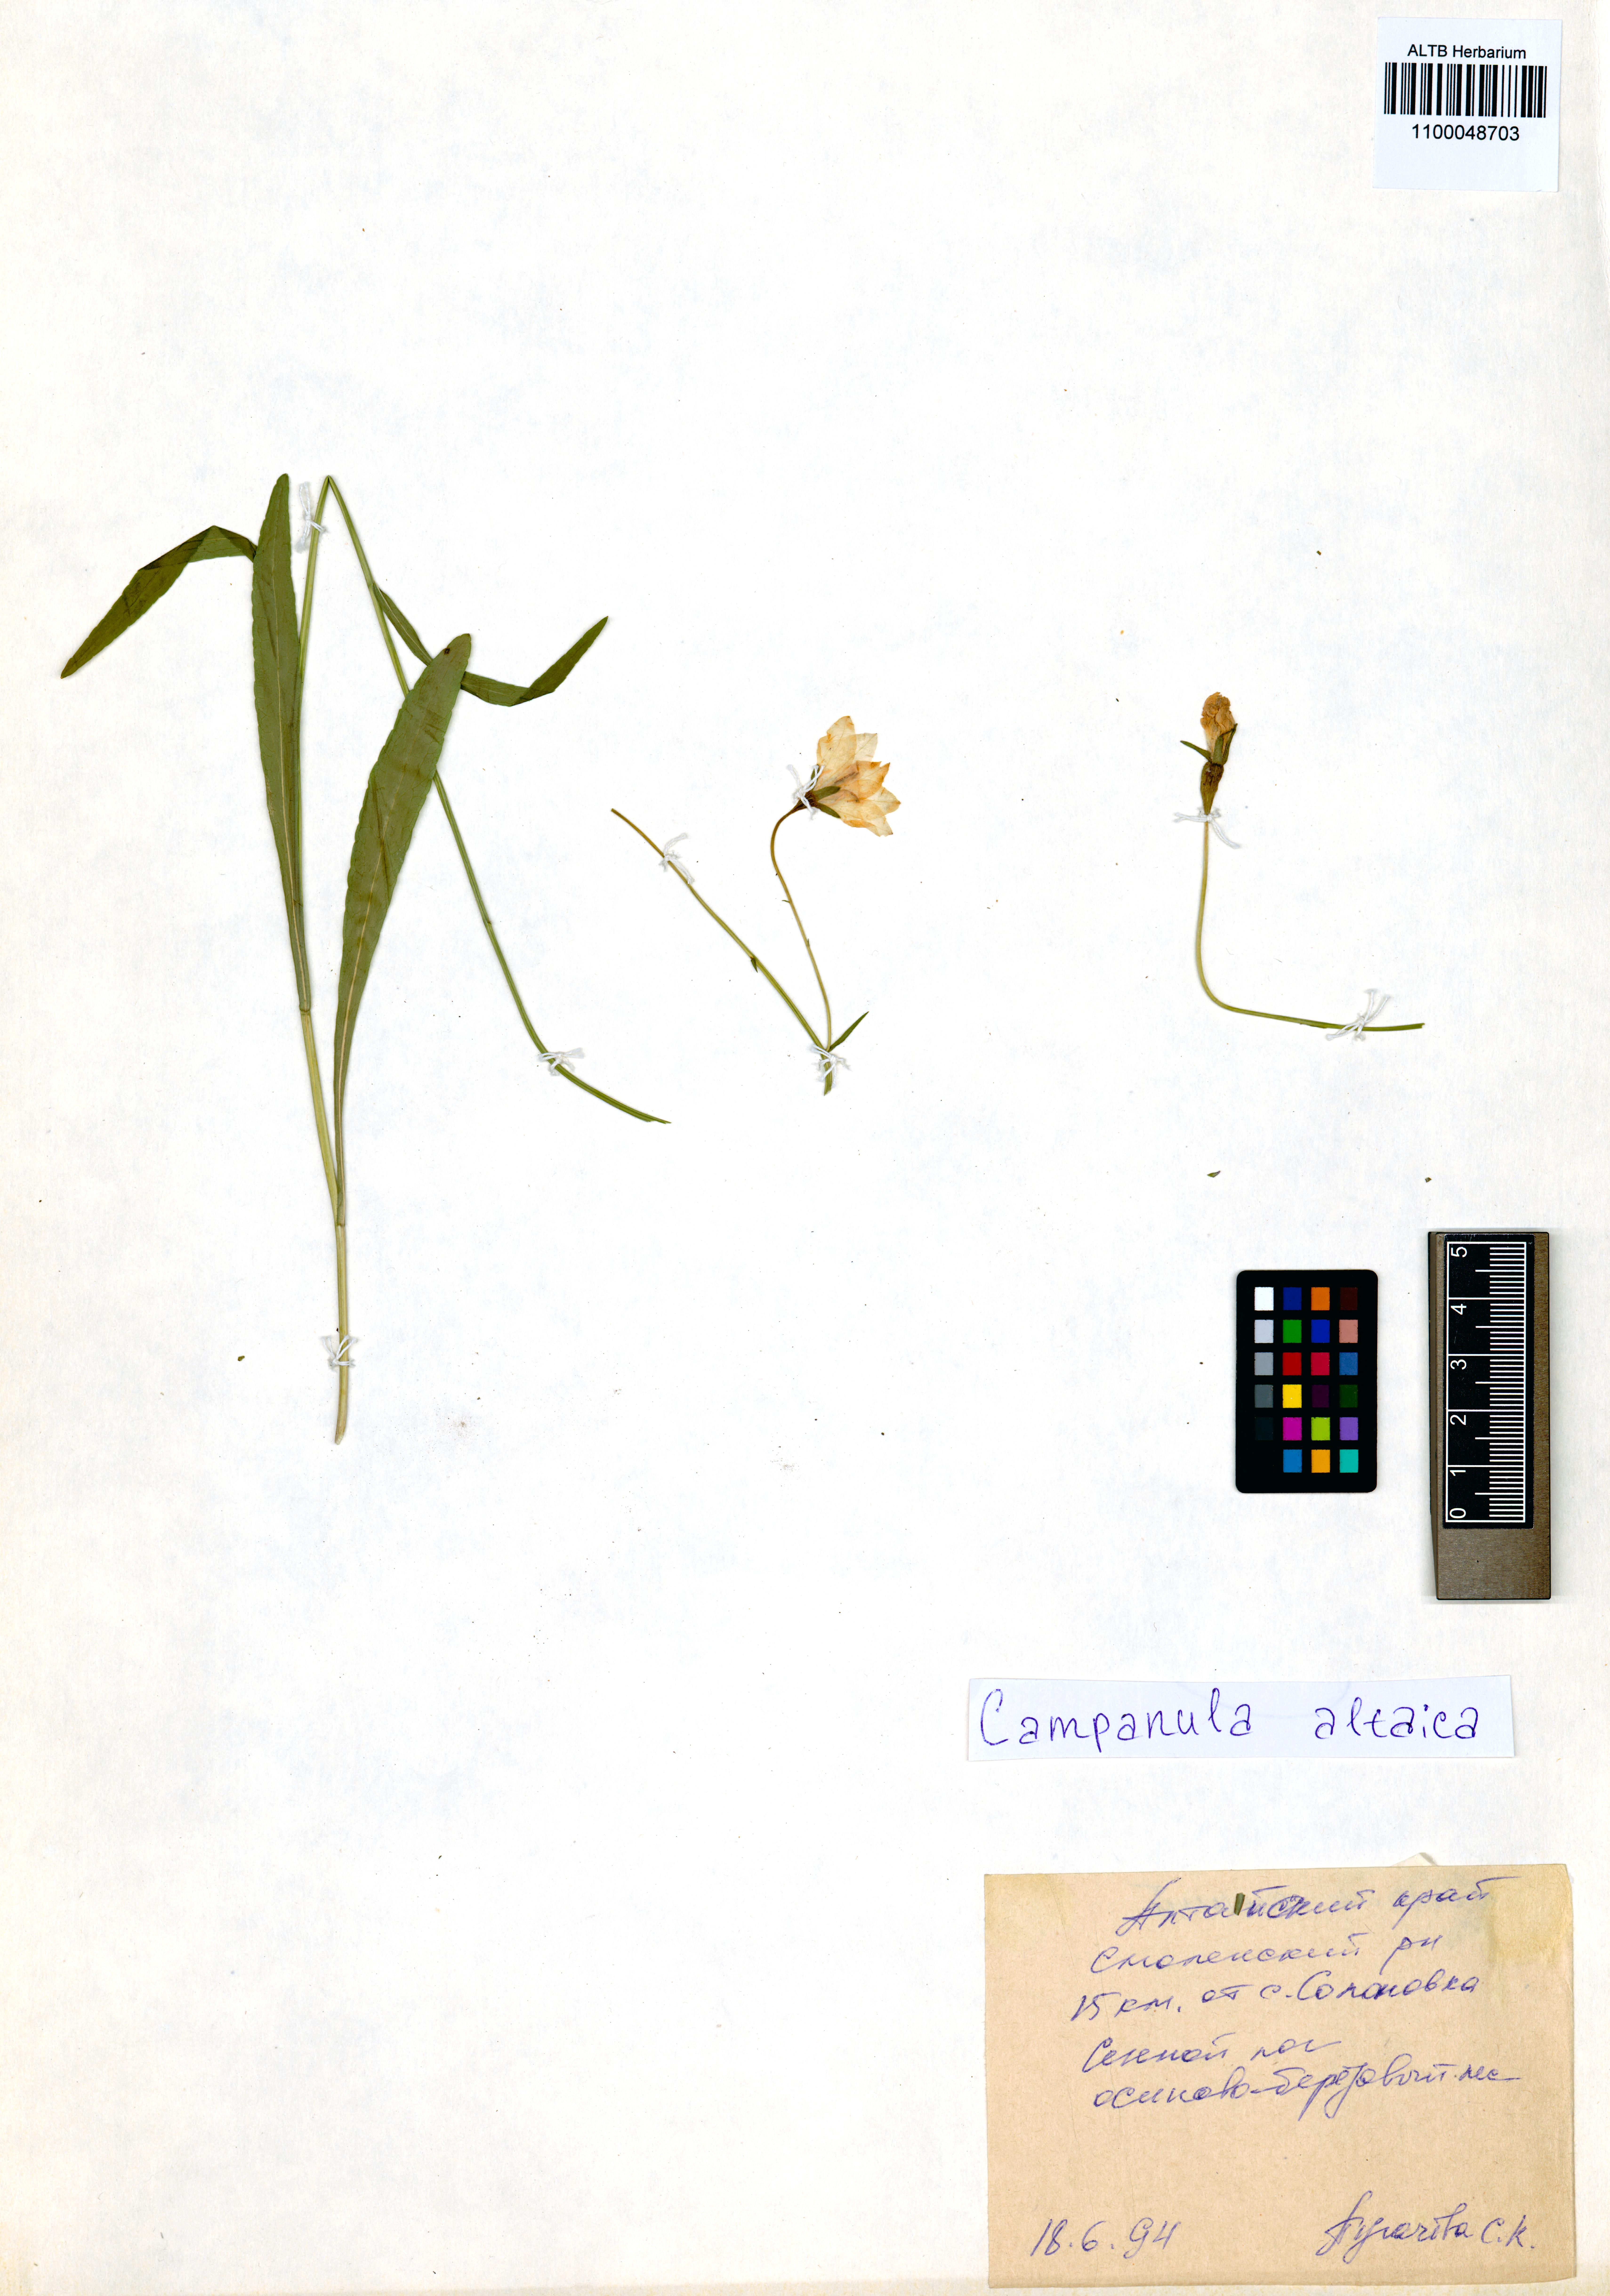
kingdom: Plantae
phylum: Tracheophyta
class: Magnoliopsida
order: Asterales
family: Campanulaceae
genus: Campanula
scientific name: Campanula stevenii
